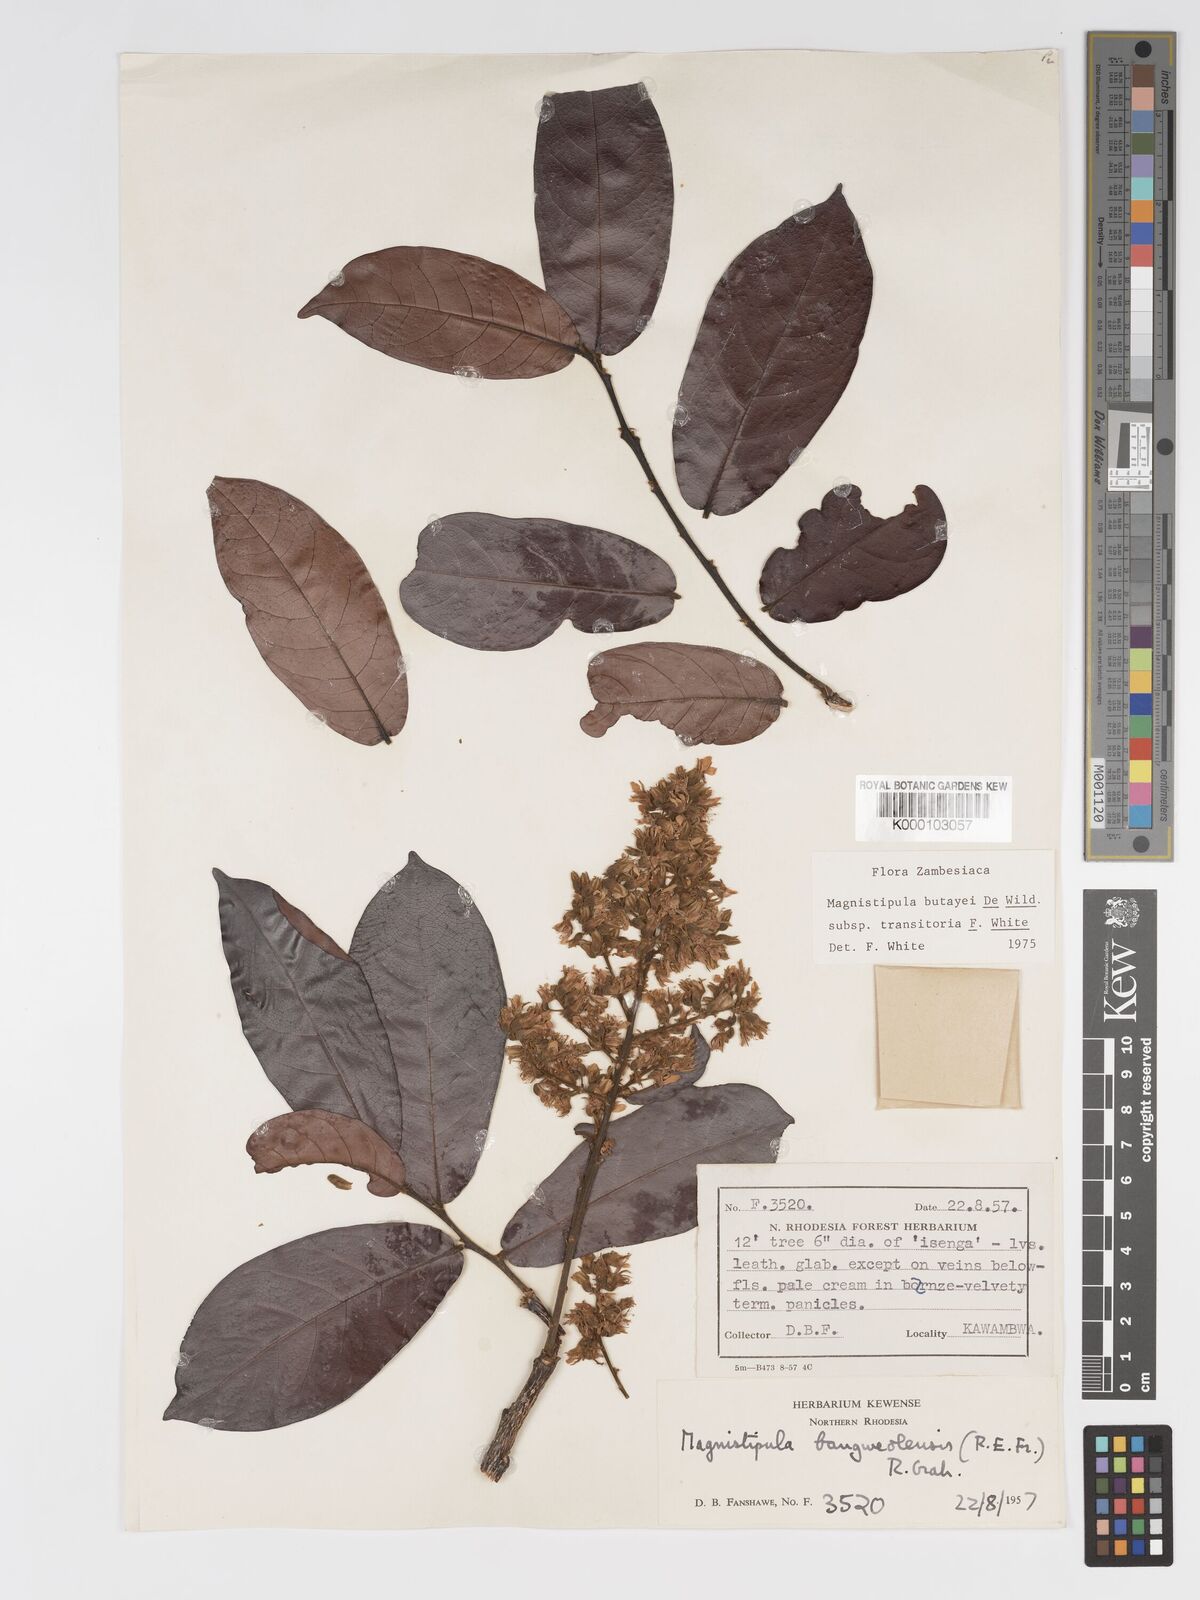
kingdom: Plantae
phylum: Tracheophyta
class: Magnoliopsida
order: Malpighiales
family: Chrysobalanaceae
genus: Magnistipula
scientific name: Magnistipula butayei
